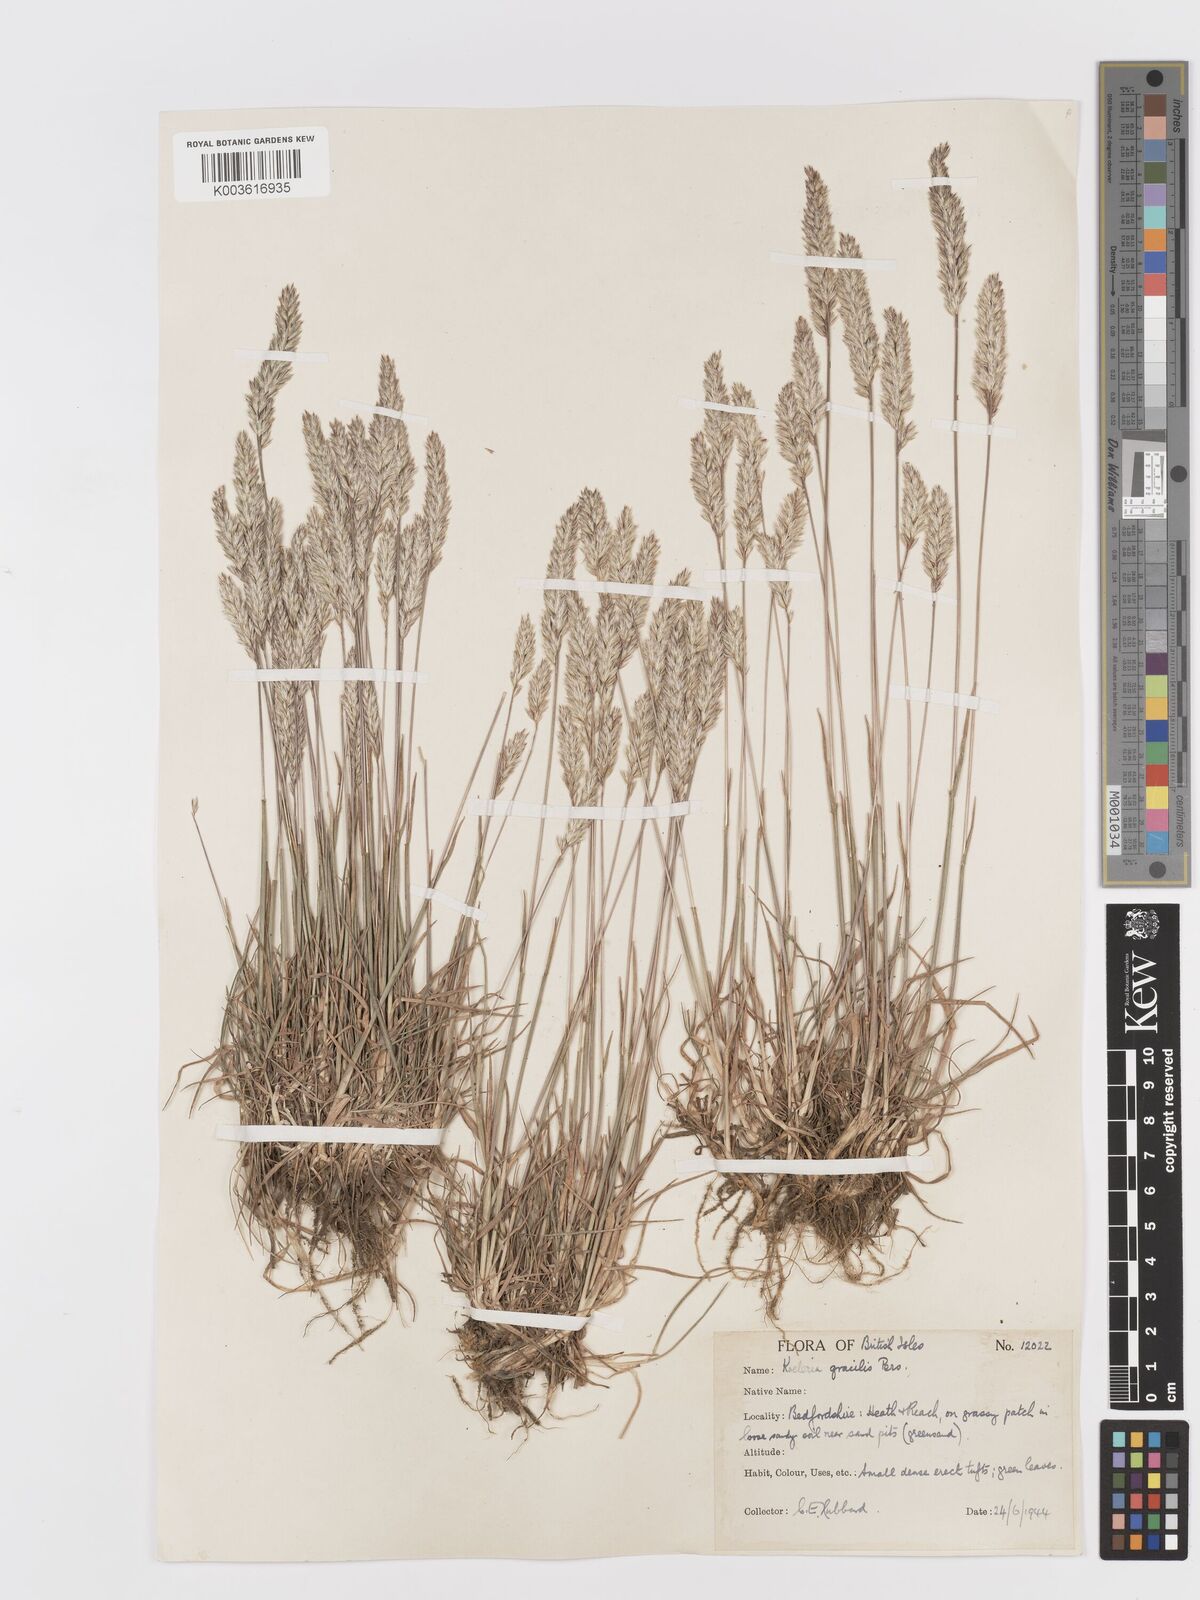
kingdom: Plantae
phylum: Tracheophyta
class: Liliopsida
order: Poales
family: Poaceae
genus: Koeleria
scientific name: Koeleria macrantha
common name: Crested hair-grass
